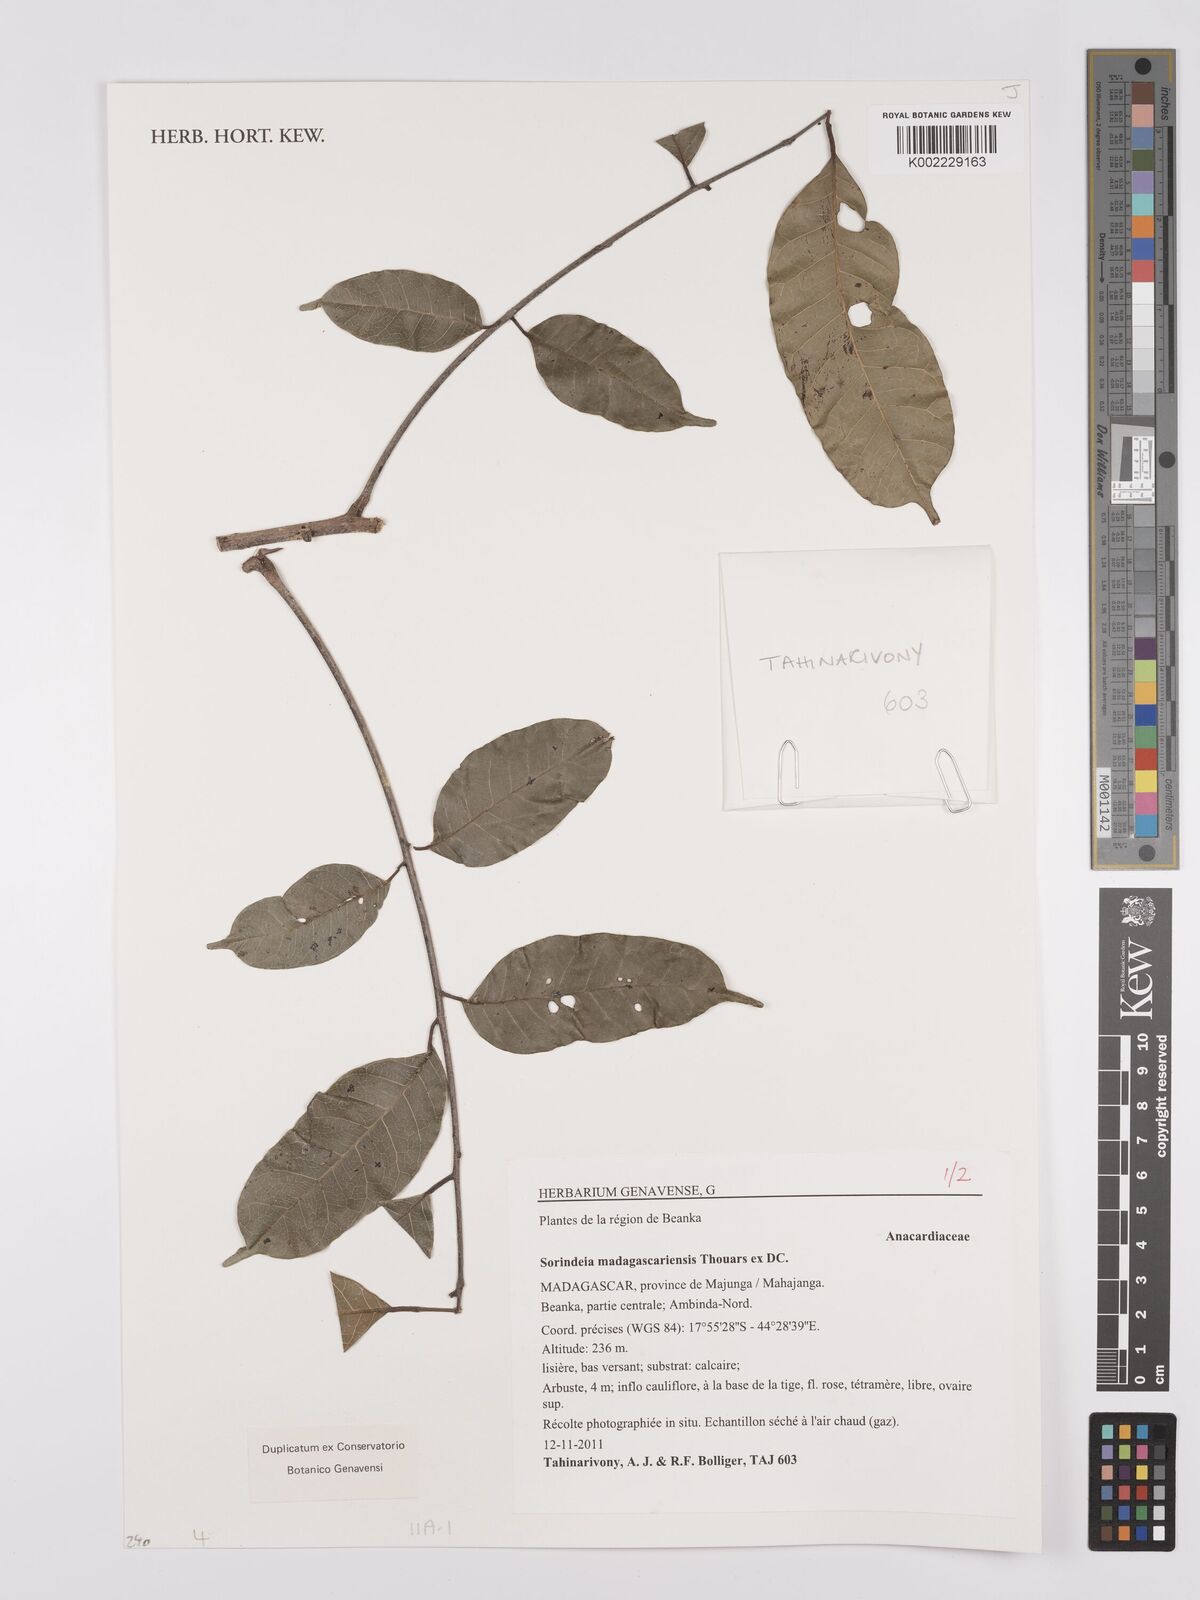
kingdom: Plantae
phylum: Tracheophyta
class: Magnoliopsida
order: Sapindales
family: Anacardiaceae
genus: Sorindeia
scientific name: Sorindeia madagascariensis
